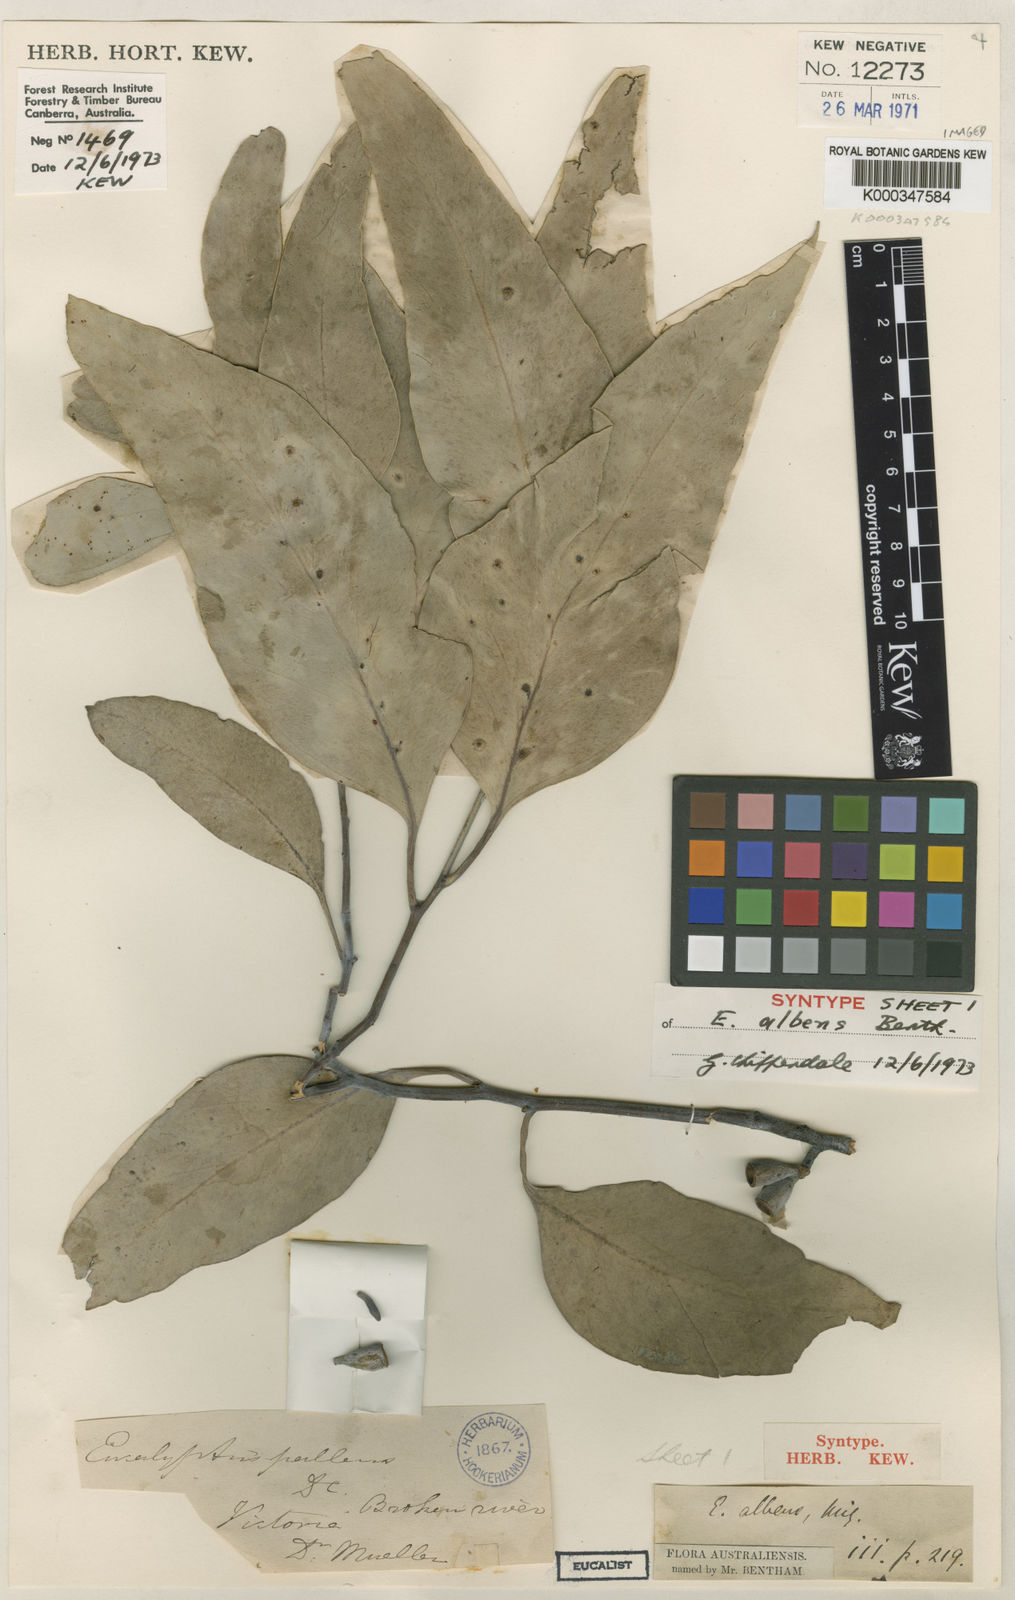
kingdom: Plantae
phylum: Tracheophyta
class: Magnoliopsida
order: Myrtales
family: Myrtaceae
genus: Eucalyptus
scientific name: Eucalyptus albens
